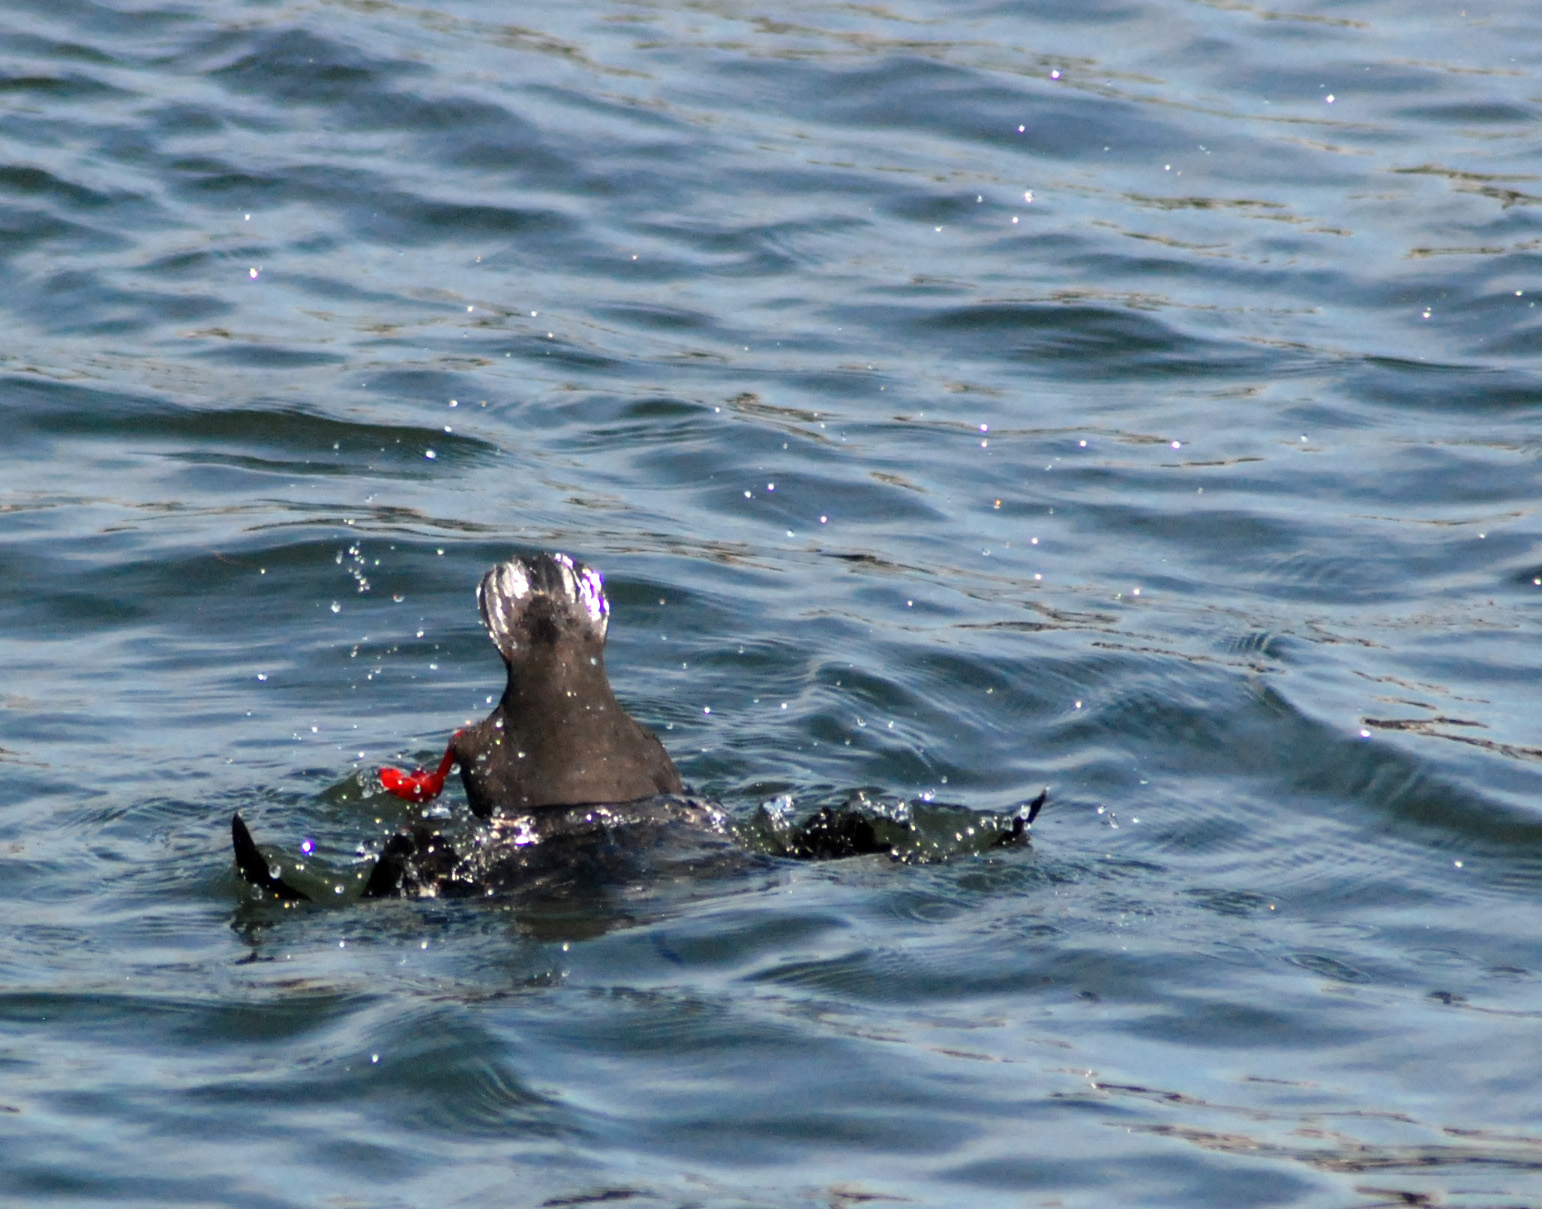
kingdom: Animalia
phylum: Chordata
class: Aves
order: Charadriiformes
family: Alcidae
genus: Cepphus
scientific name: Cepphus grylle
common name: Black guillemot
